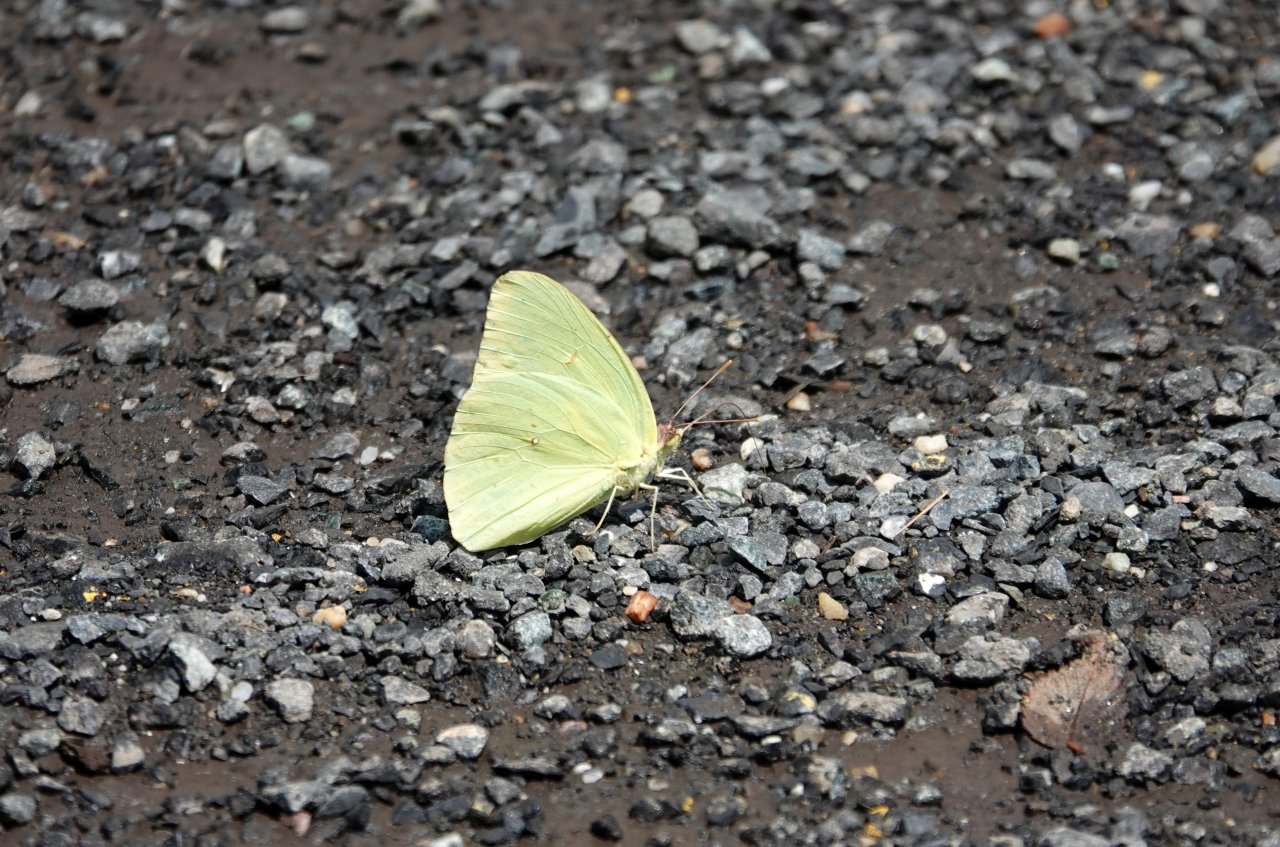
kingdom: Animalia
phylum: Arthropoda
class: Insecta
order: Lepidoptera
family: Pieridae
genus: Phoebis
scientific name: Phoebis sennae
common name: Cloudless Sulphur
